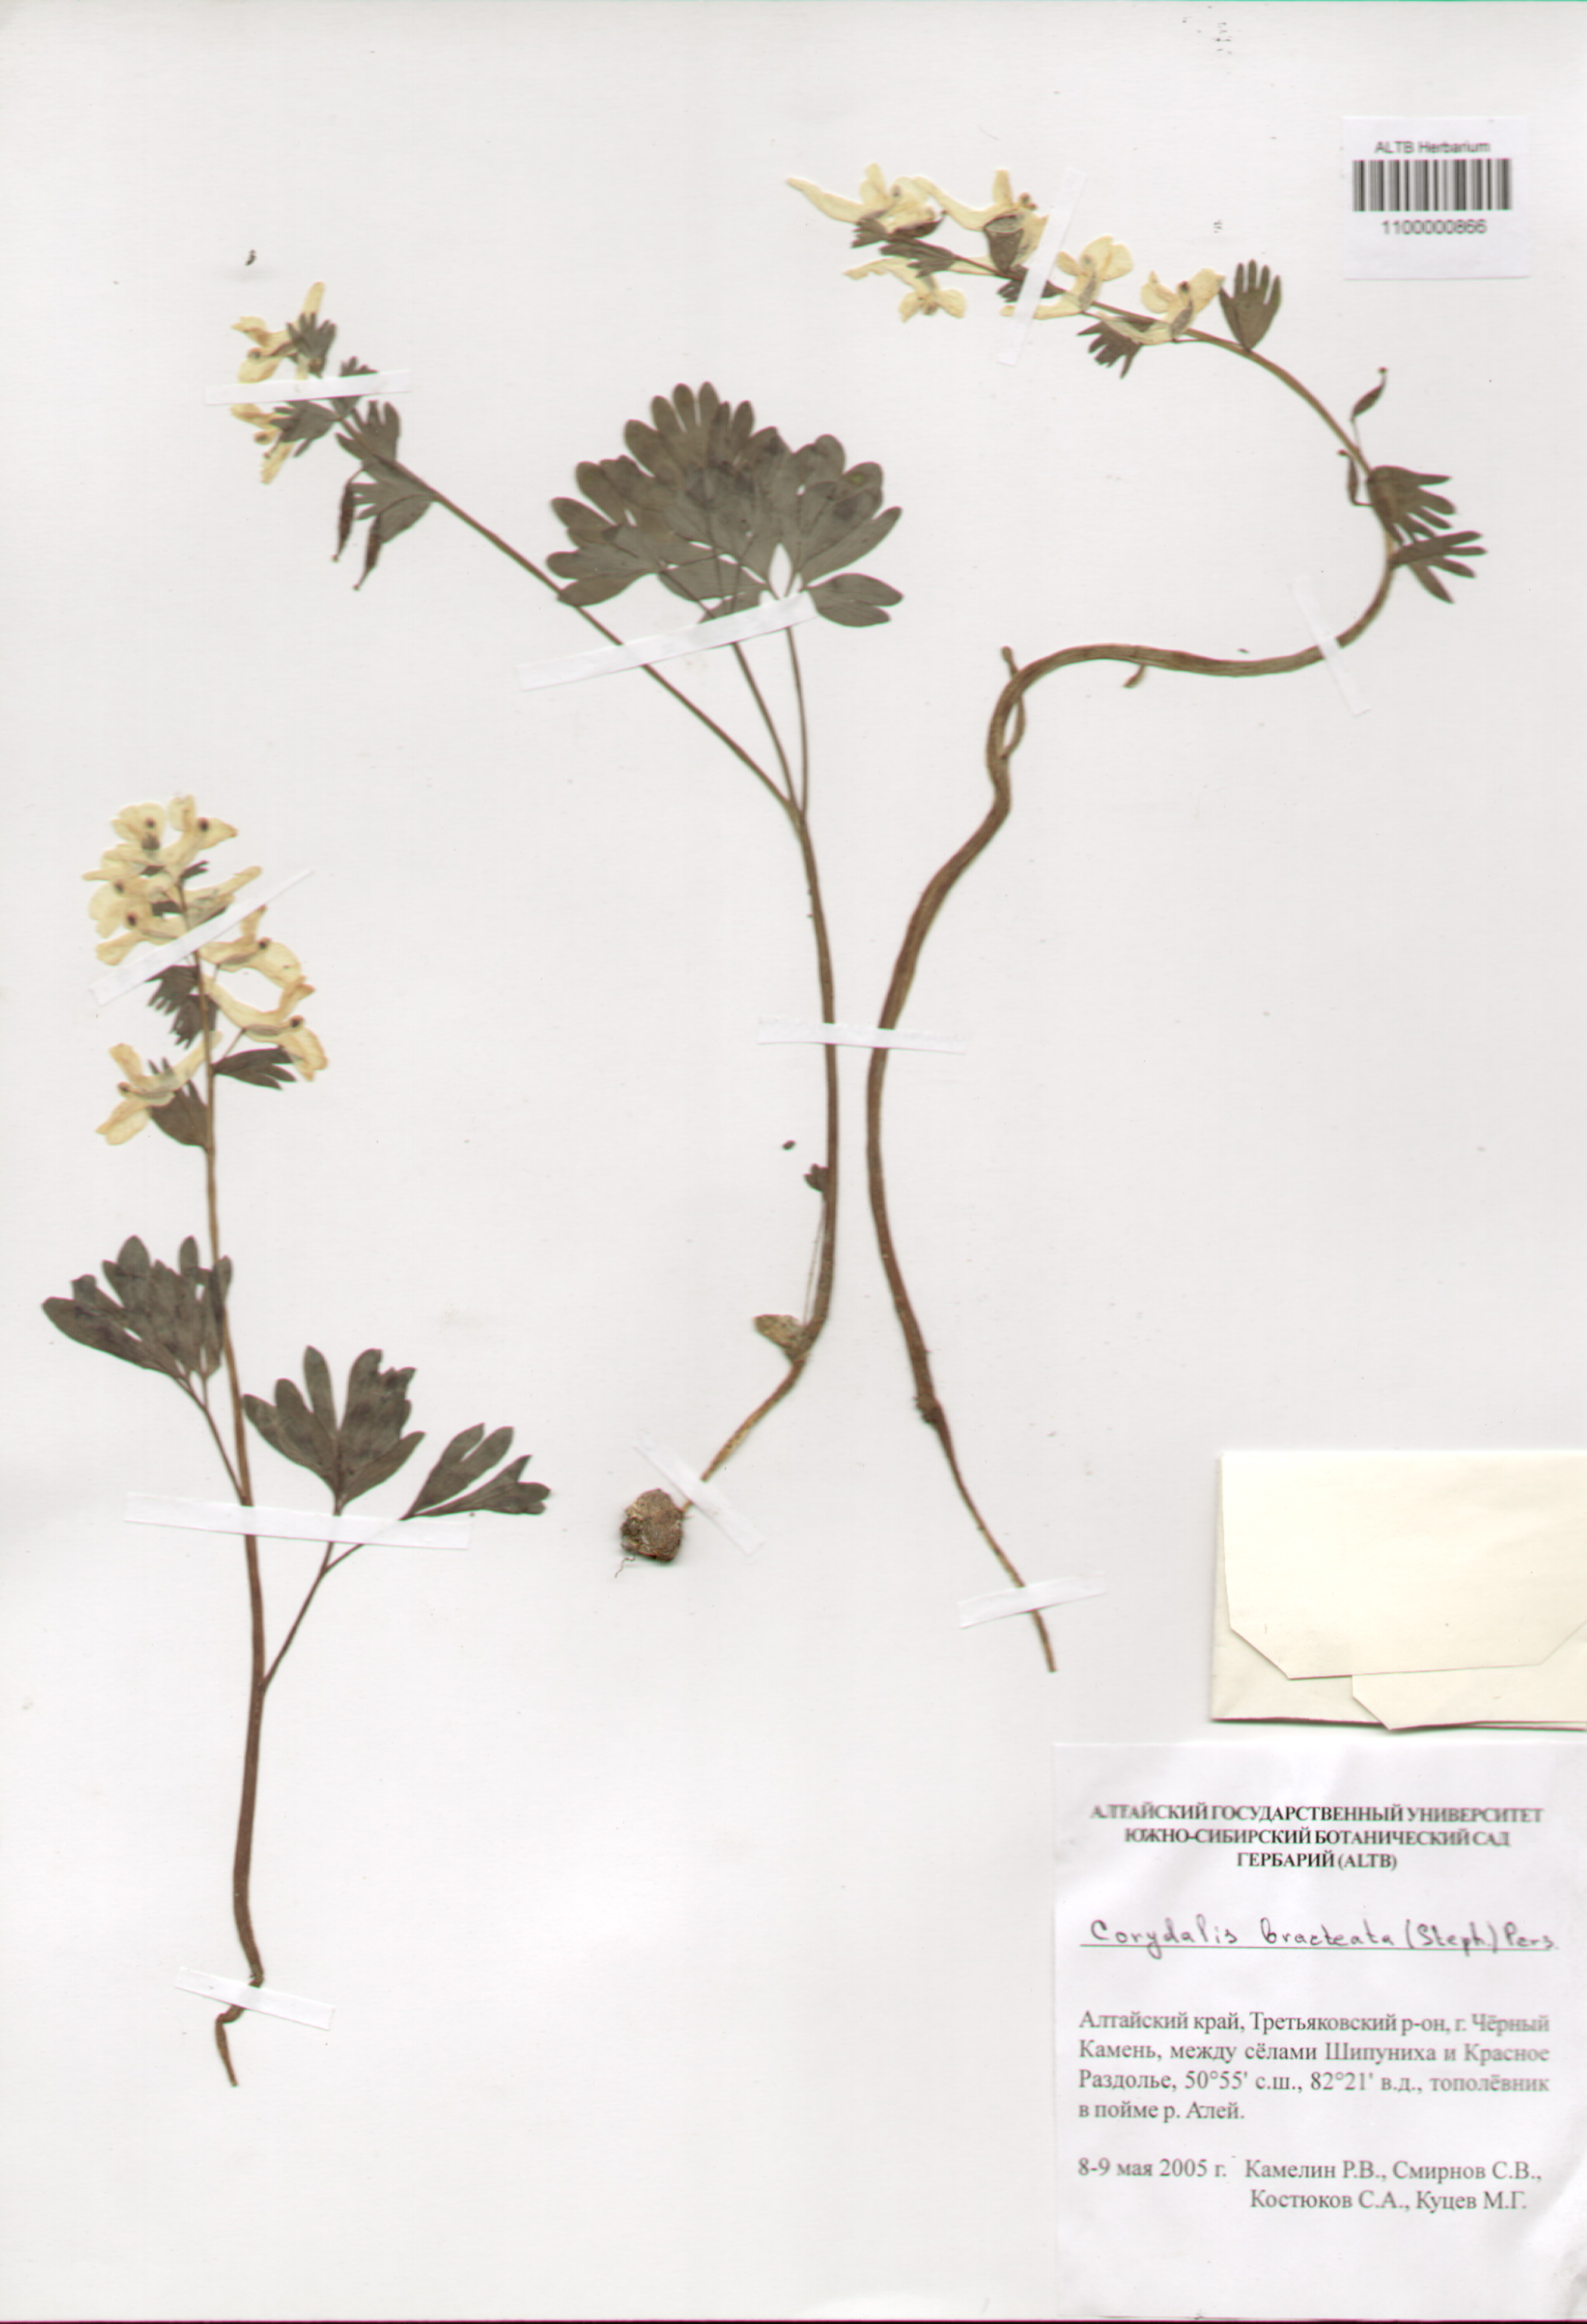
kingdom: Plantae
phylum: Tracheophyta
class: Magnoliopsida
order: Ranunculales
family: Papaveraceae
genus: Corydalis
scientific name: Corydalis bracteata
